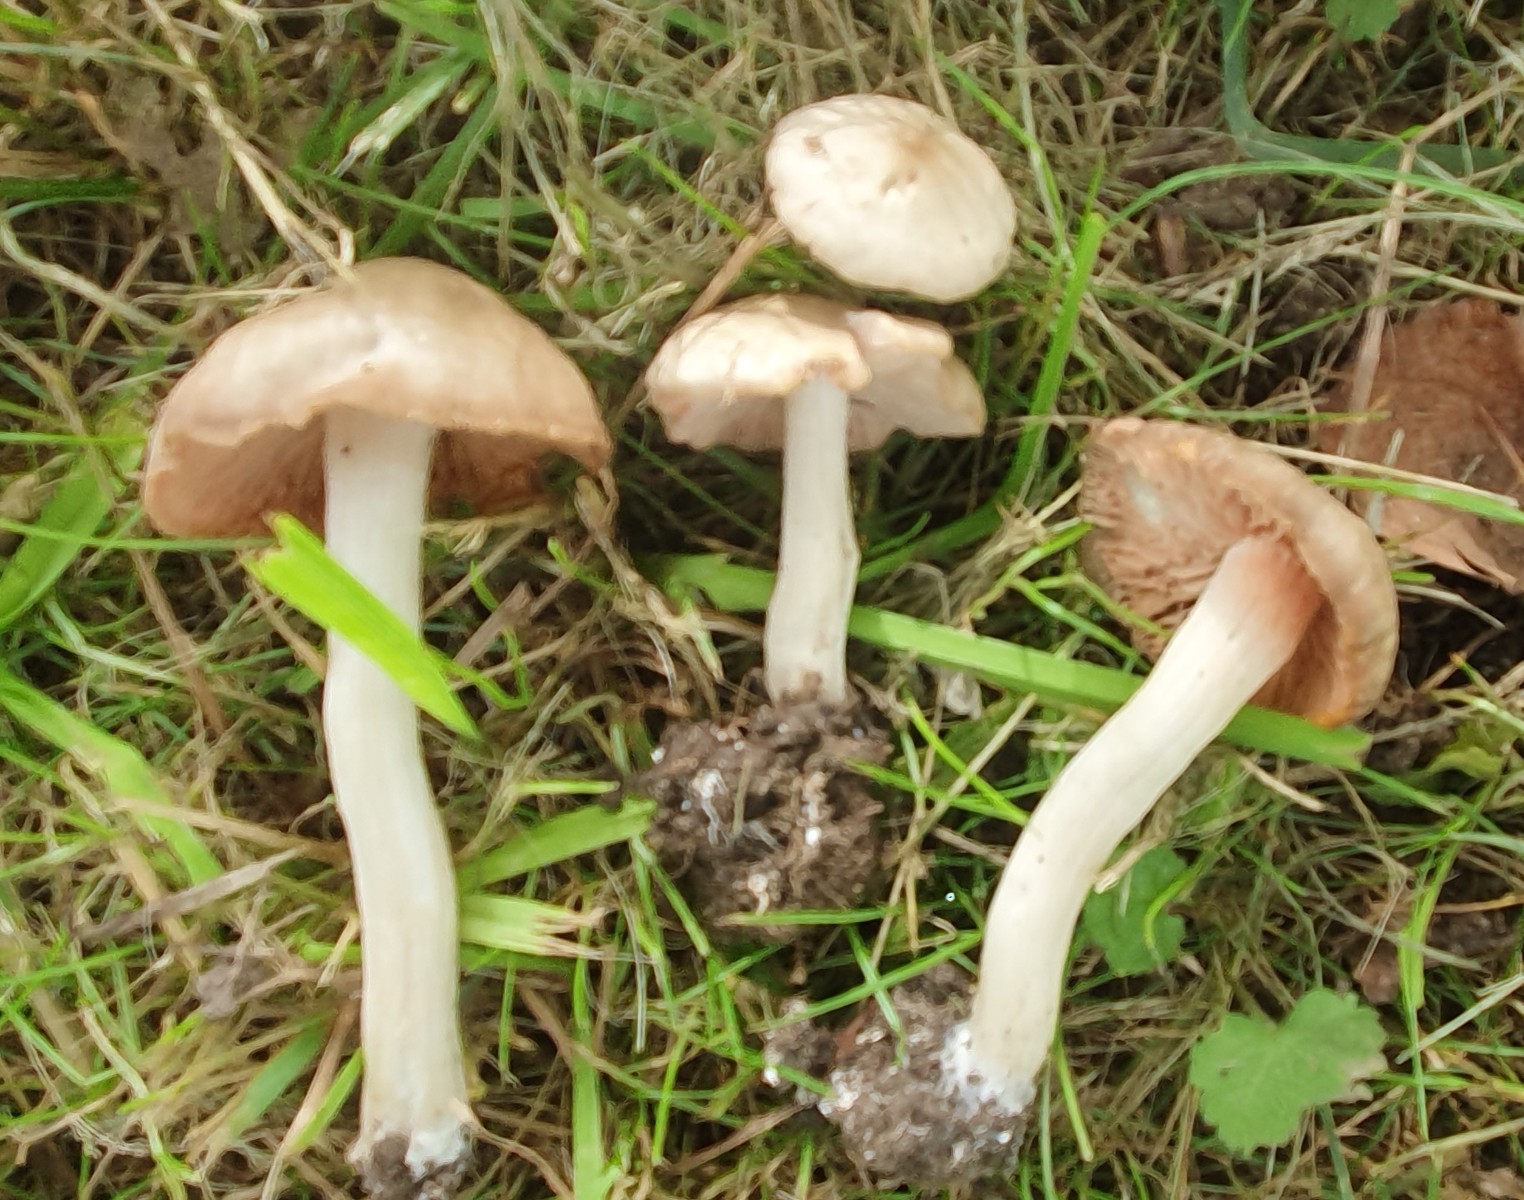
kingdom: Fungi
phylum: Basidiomycota
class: Agaricomycetes
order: Agaricales
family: Entolomataceae
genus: Entoloma
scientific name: Entoloma
